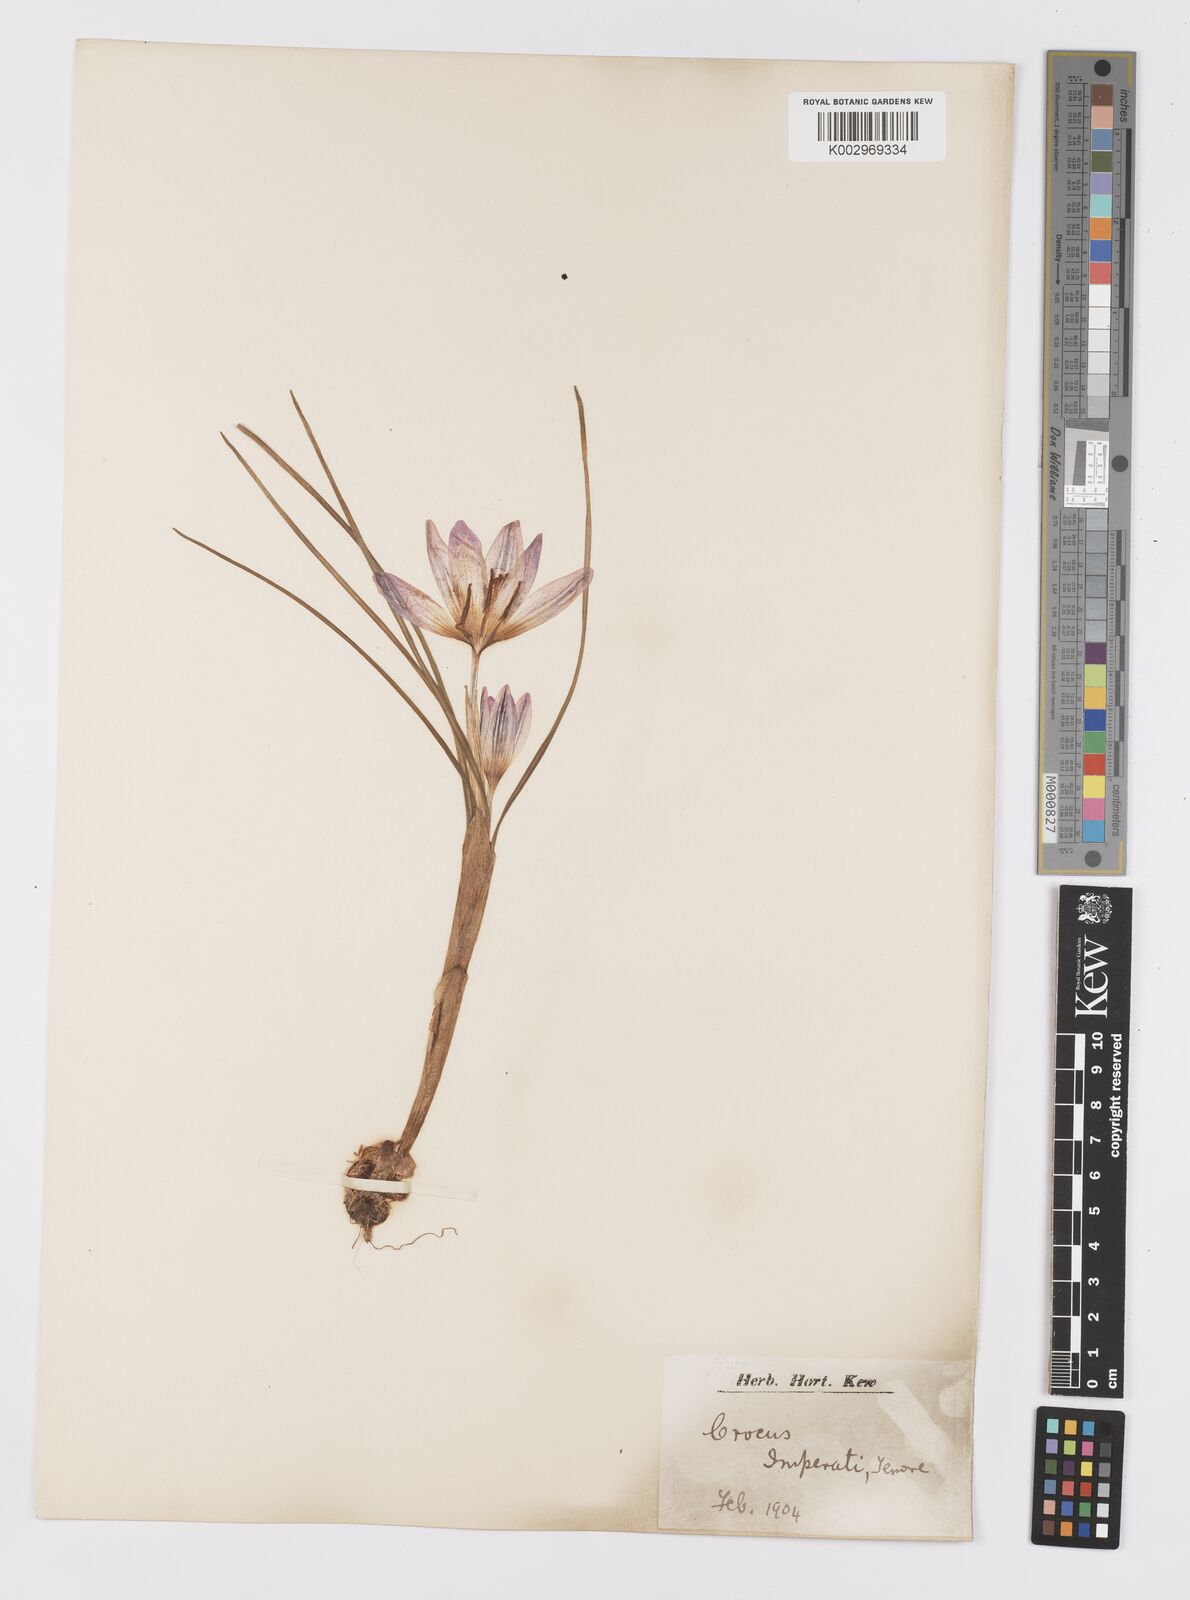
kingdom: Plantae
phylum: Tracheophyta
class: Liliopsida
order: Asparagales
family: Iridaceae
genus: Crocus
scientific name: Crocus imperati
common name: Early crocus
